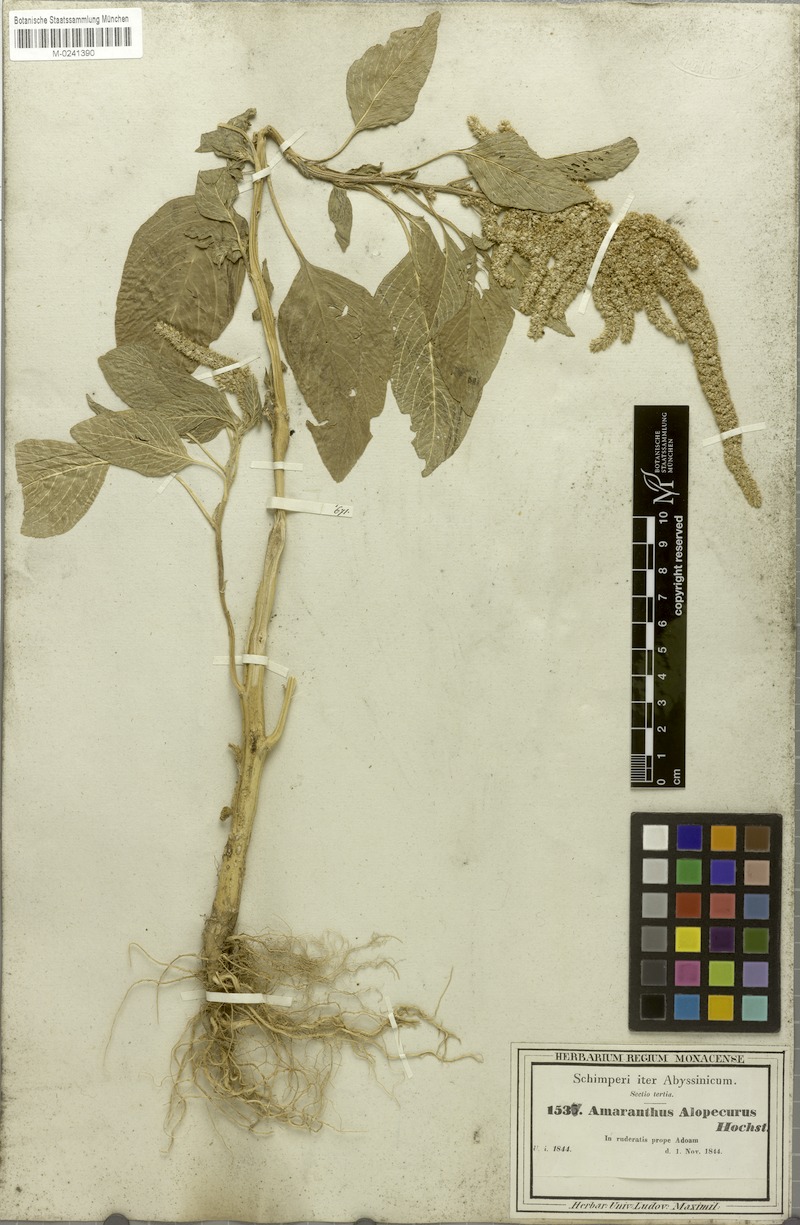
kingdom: Plantae
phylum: Tracheophyta
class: Magnoliopsida
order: Caryophyllales
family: Amaranthaceae
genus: Amaranthus
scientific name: Amaranthus caudatus
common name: Love-lies-bleeding
